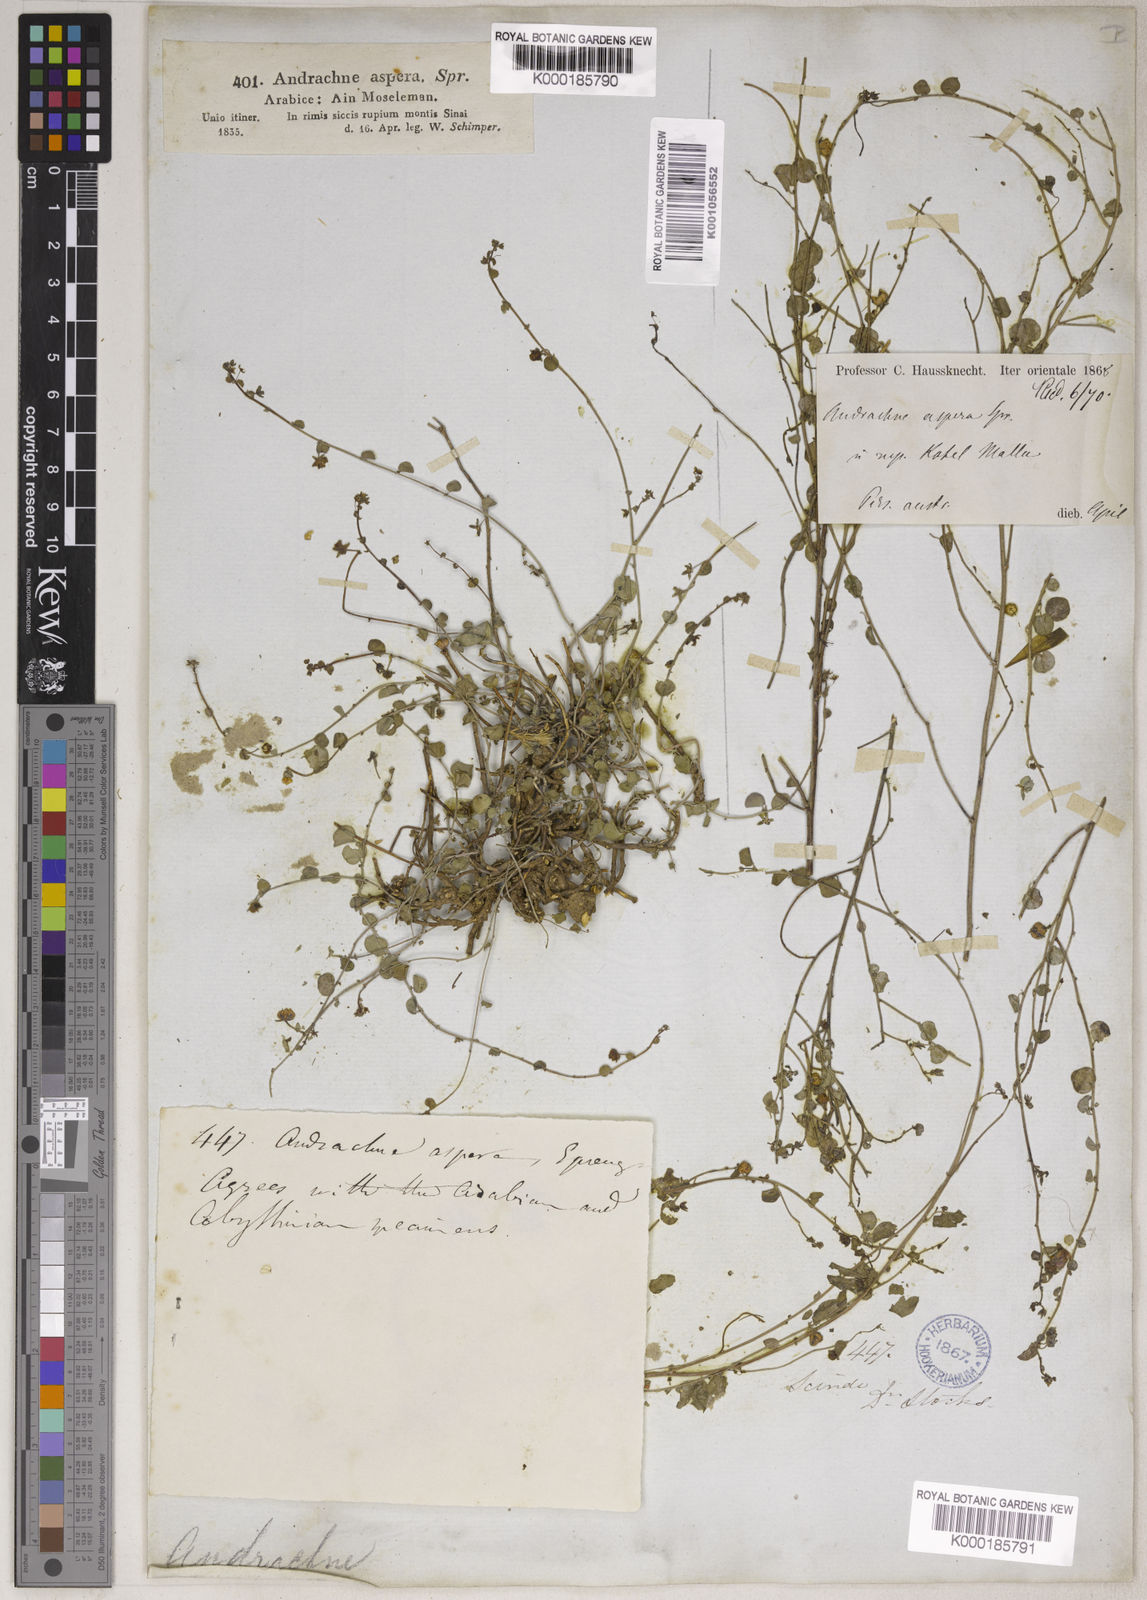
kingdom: Plantae
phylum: Tracheophyta
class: Magnoliopsida
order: Malpighiales
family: Phyllanthaceae
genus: Andrachne
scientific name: Andrachne aspera
